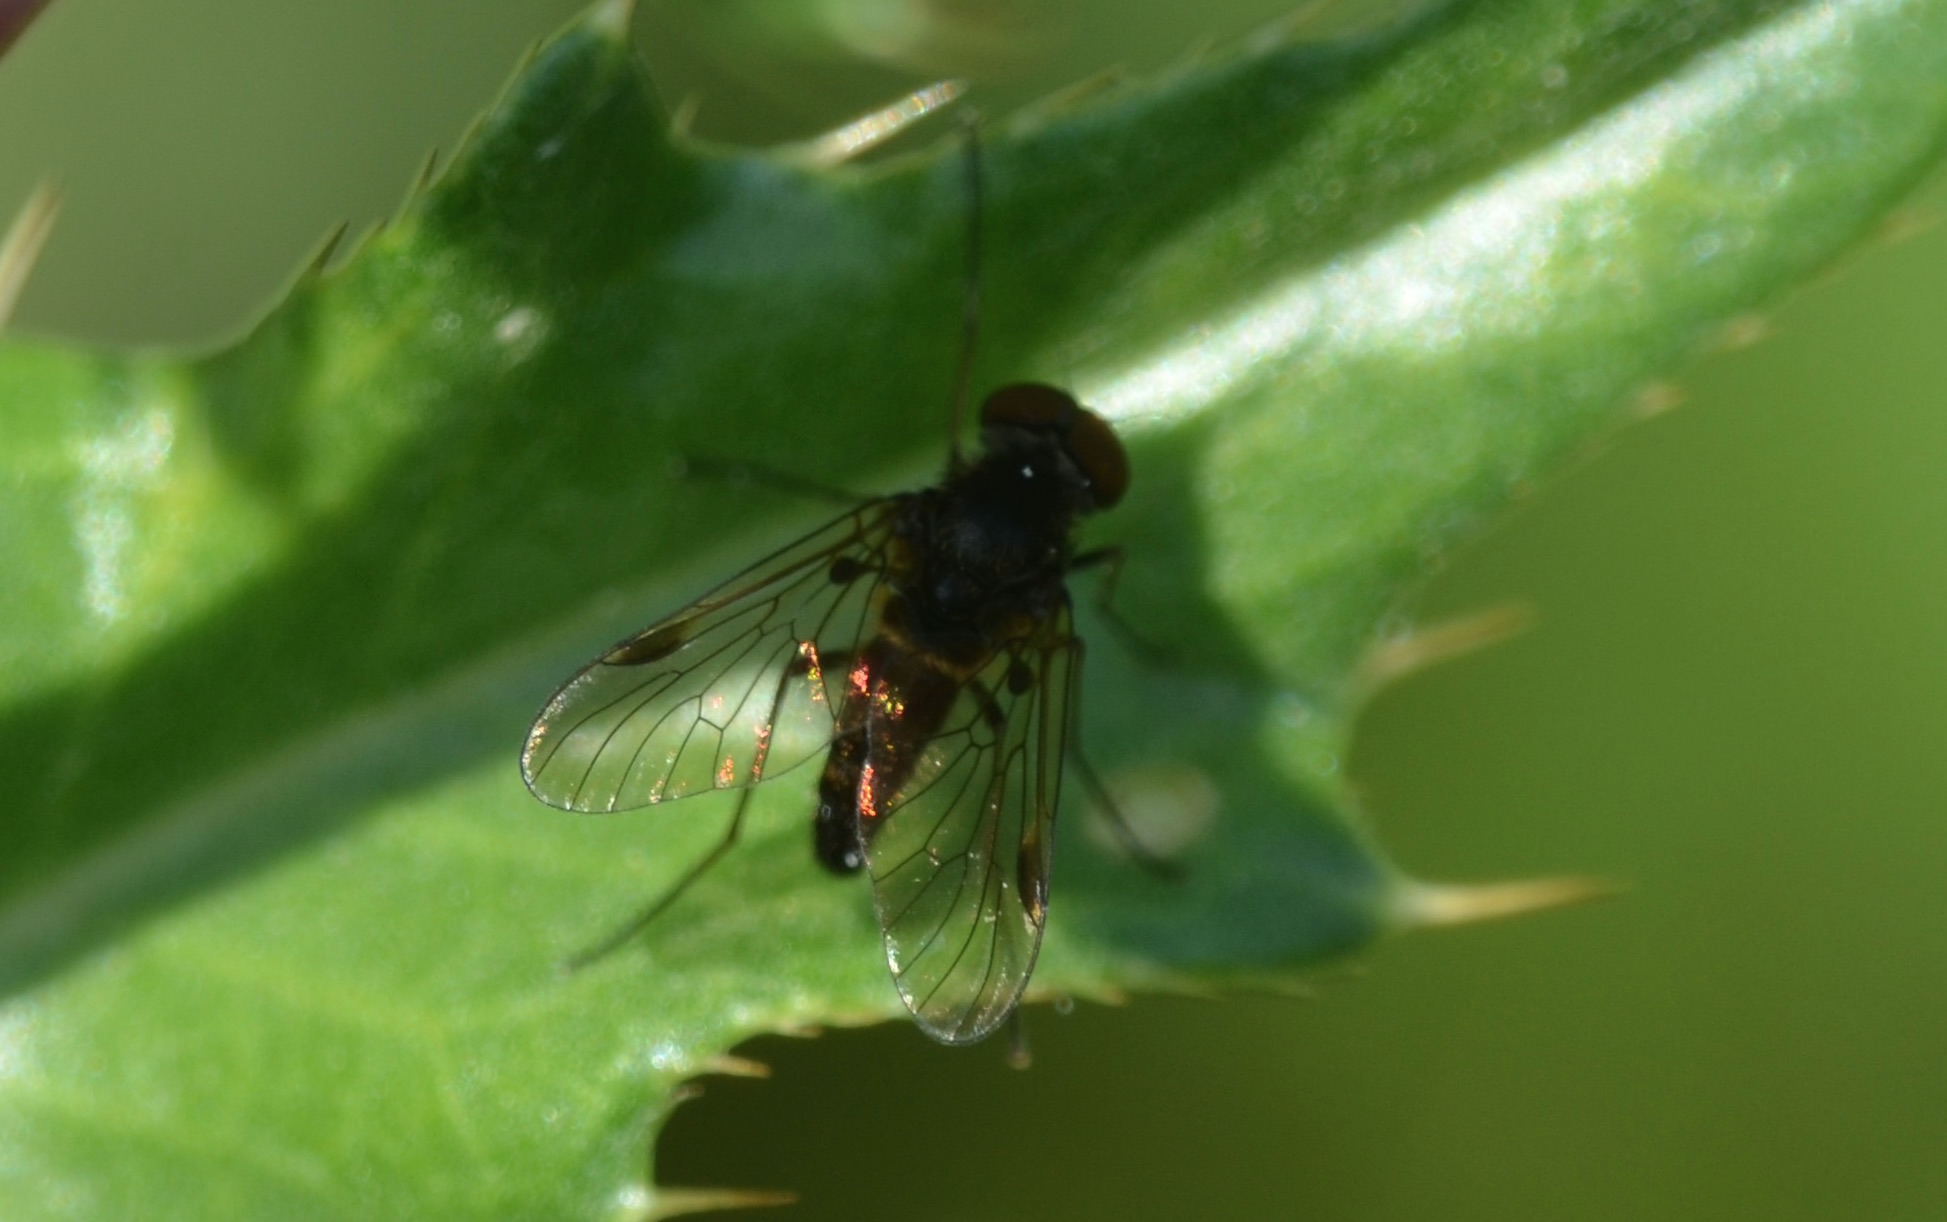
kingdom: Animalia
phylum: Arthropoda
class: Insecta
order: Diptera
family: Rhagionidae
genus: Chrysopilus
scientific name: Chrysopilus cristatus
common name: Gulhåret sneppeflue
